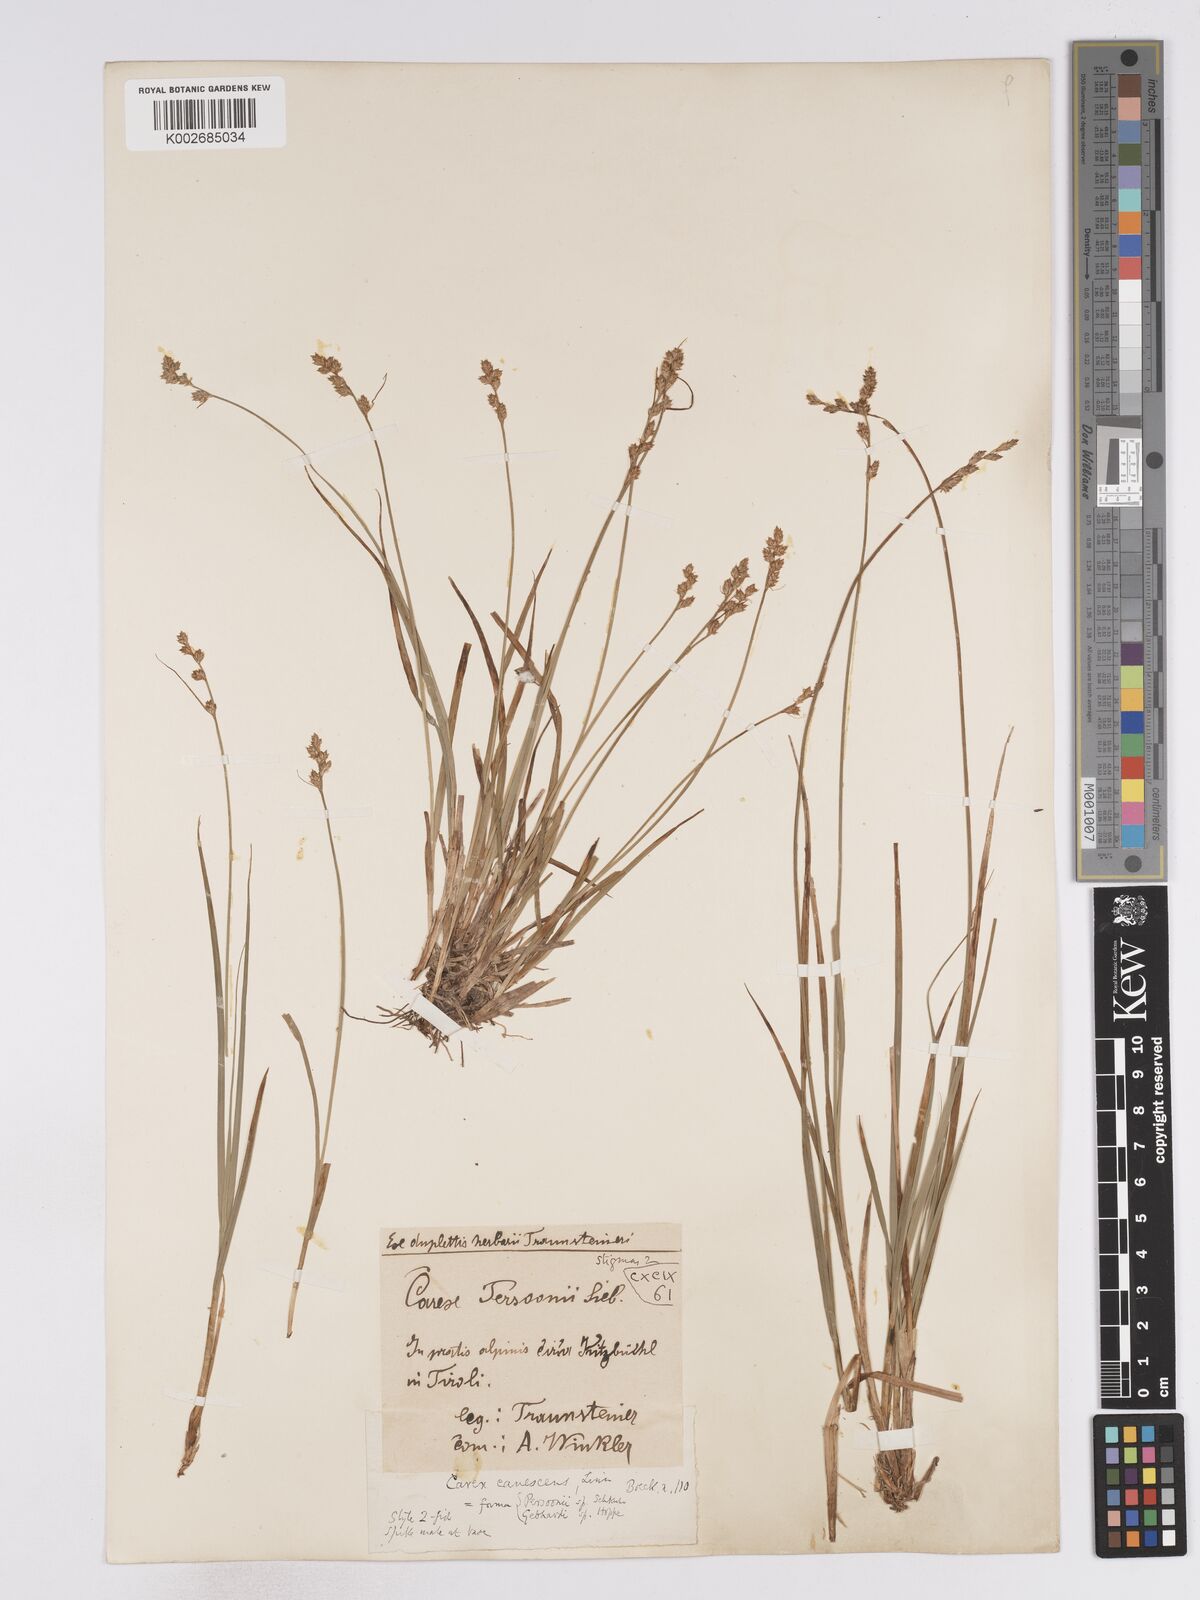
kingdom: Plantae
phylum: Tracheophyta
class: Liliopsida
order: Poales
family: Cyperaceae
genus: Carex
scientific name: Carex brunnescens
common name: Brown sedge
